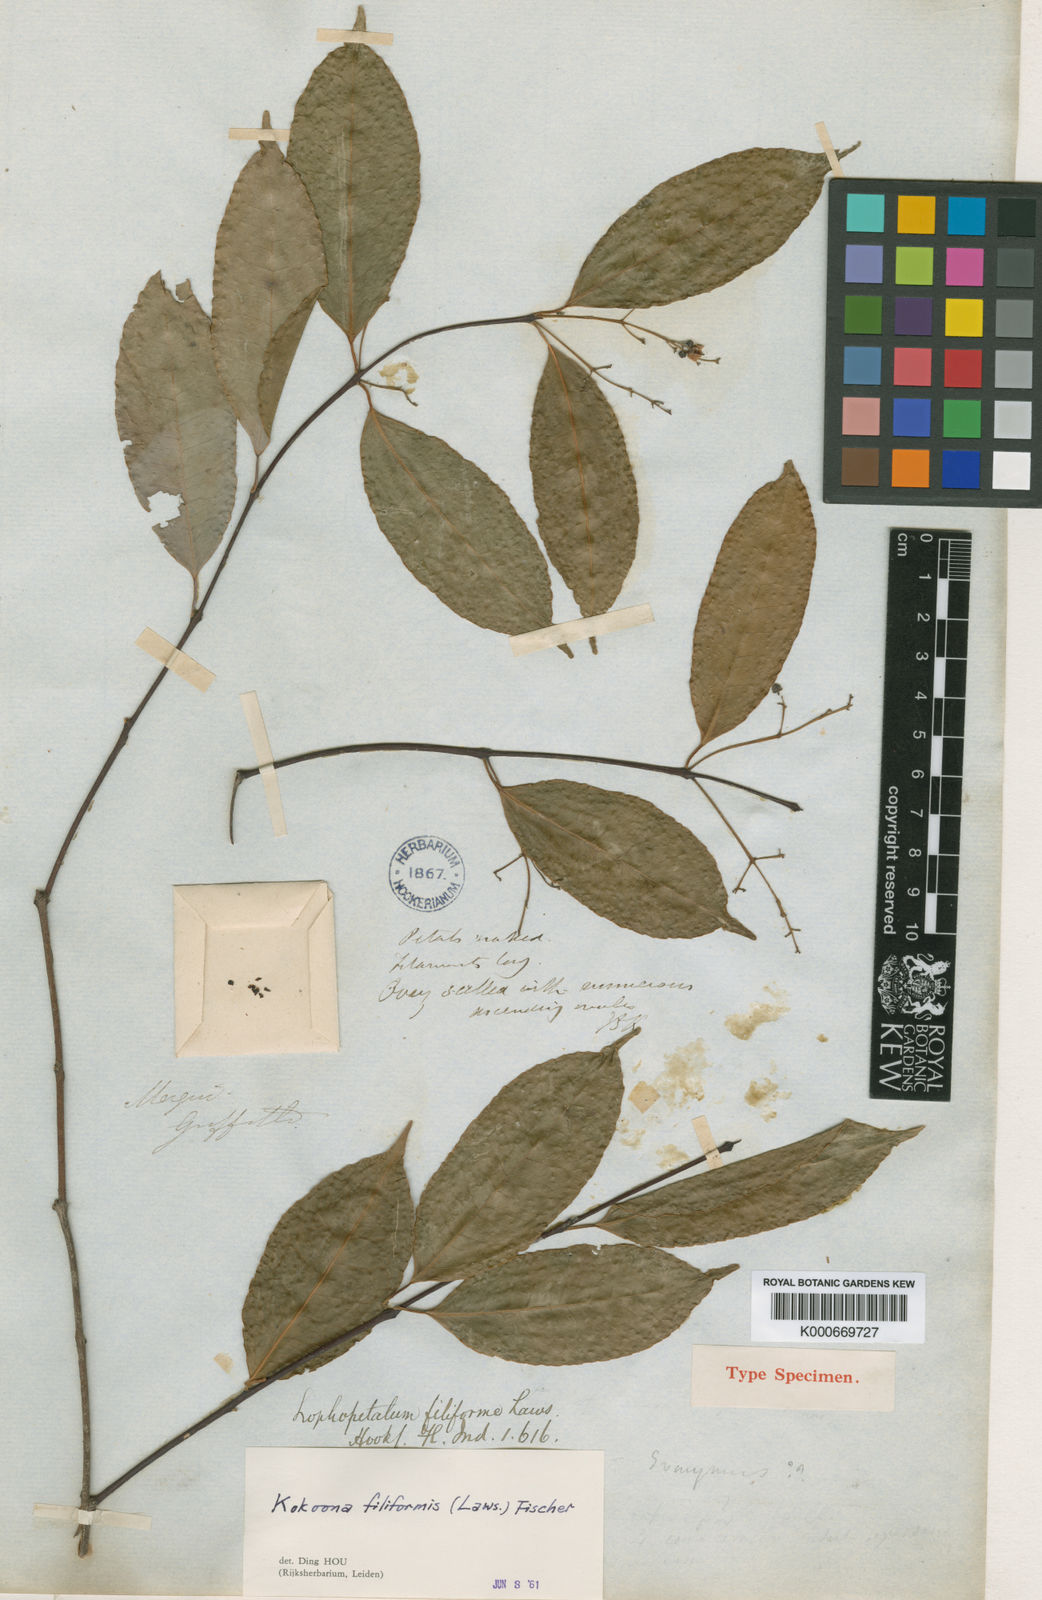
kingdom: Plantae
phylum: Tracheophyta
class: Magnoliopsida
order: Celastrales
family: Celastraceae
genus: Kokoona
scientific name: Kokoona filiformis
